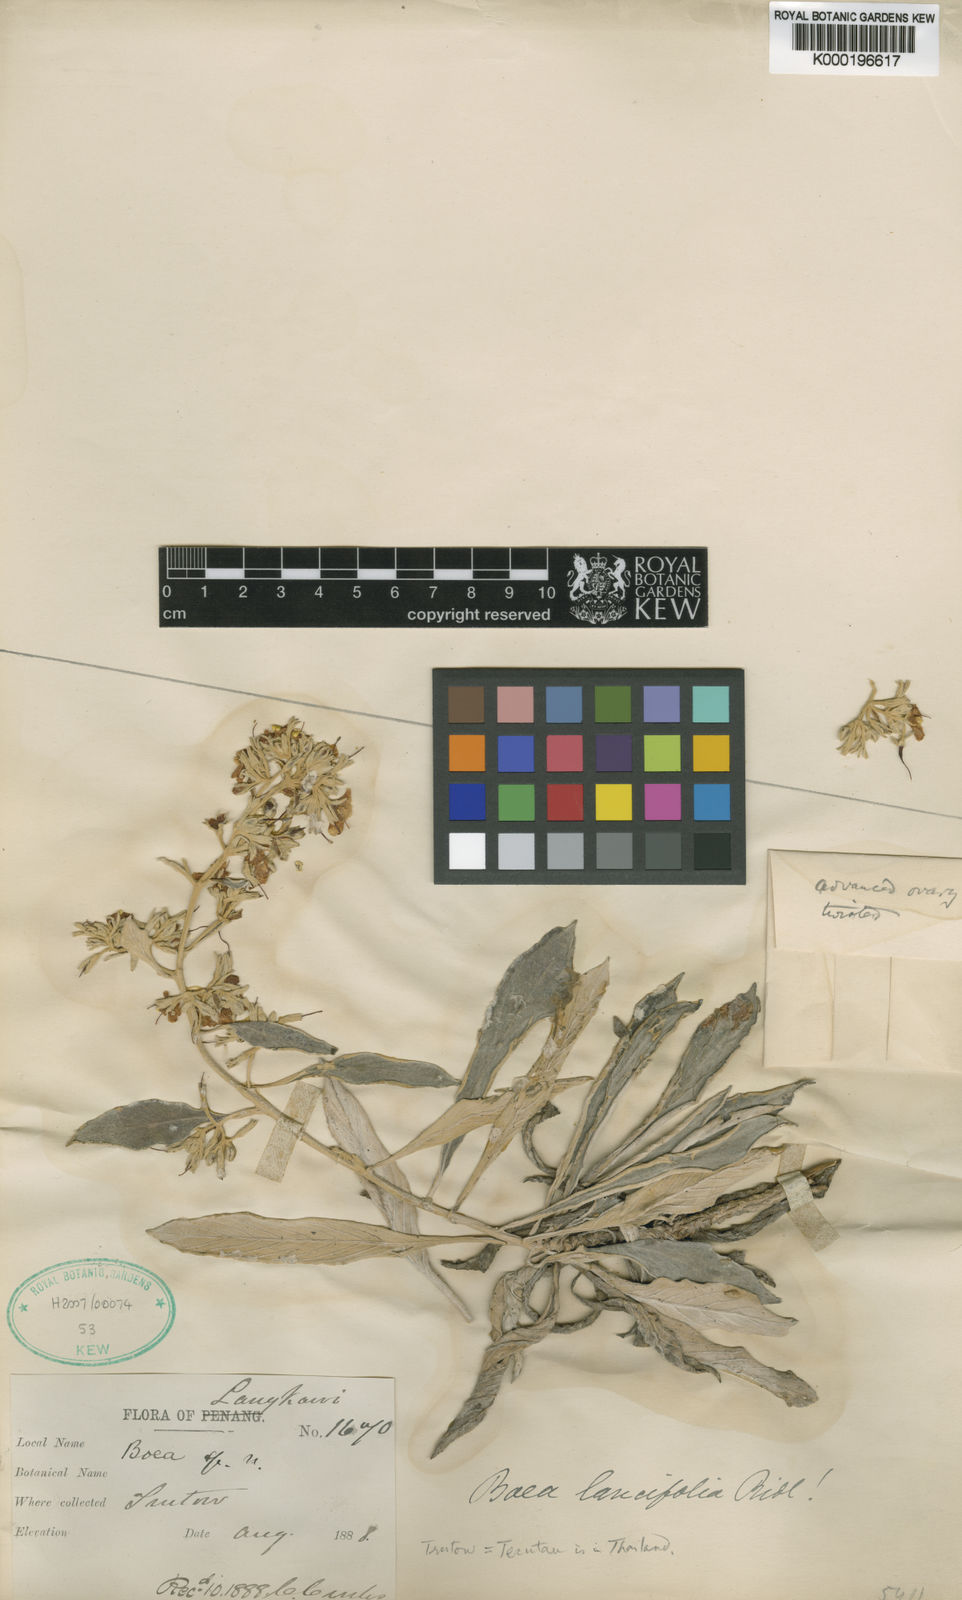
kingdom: Plantae
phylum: Tracheophyta
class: Magnoliopsida
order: Lamiales
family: Gesneriaceae
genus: Paraboea
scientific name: Paraboea lancifolia
